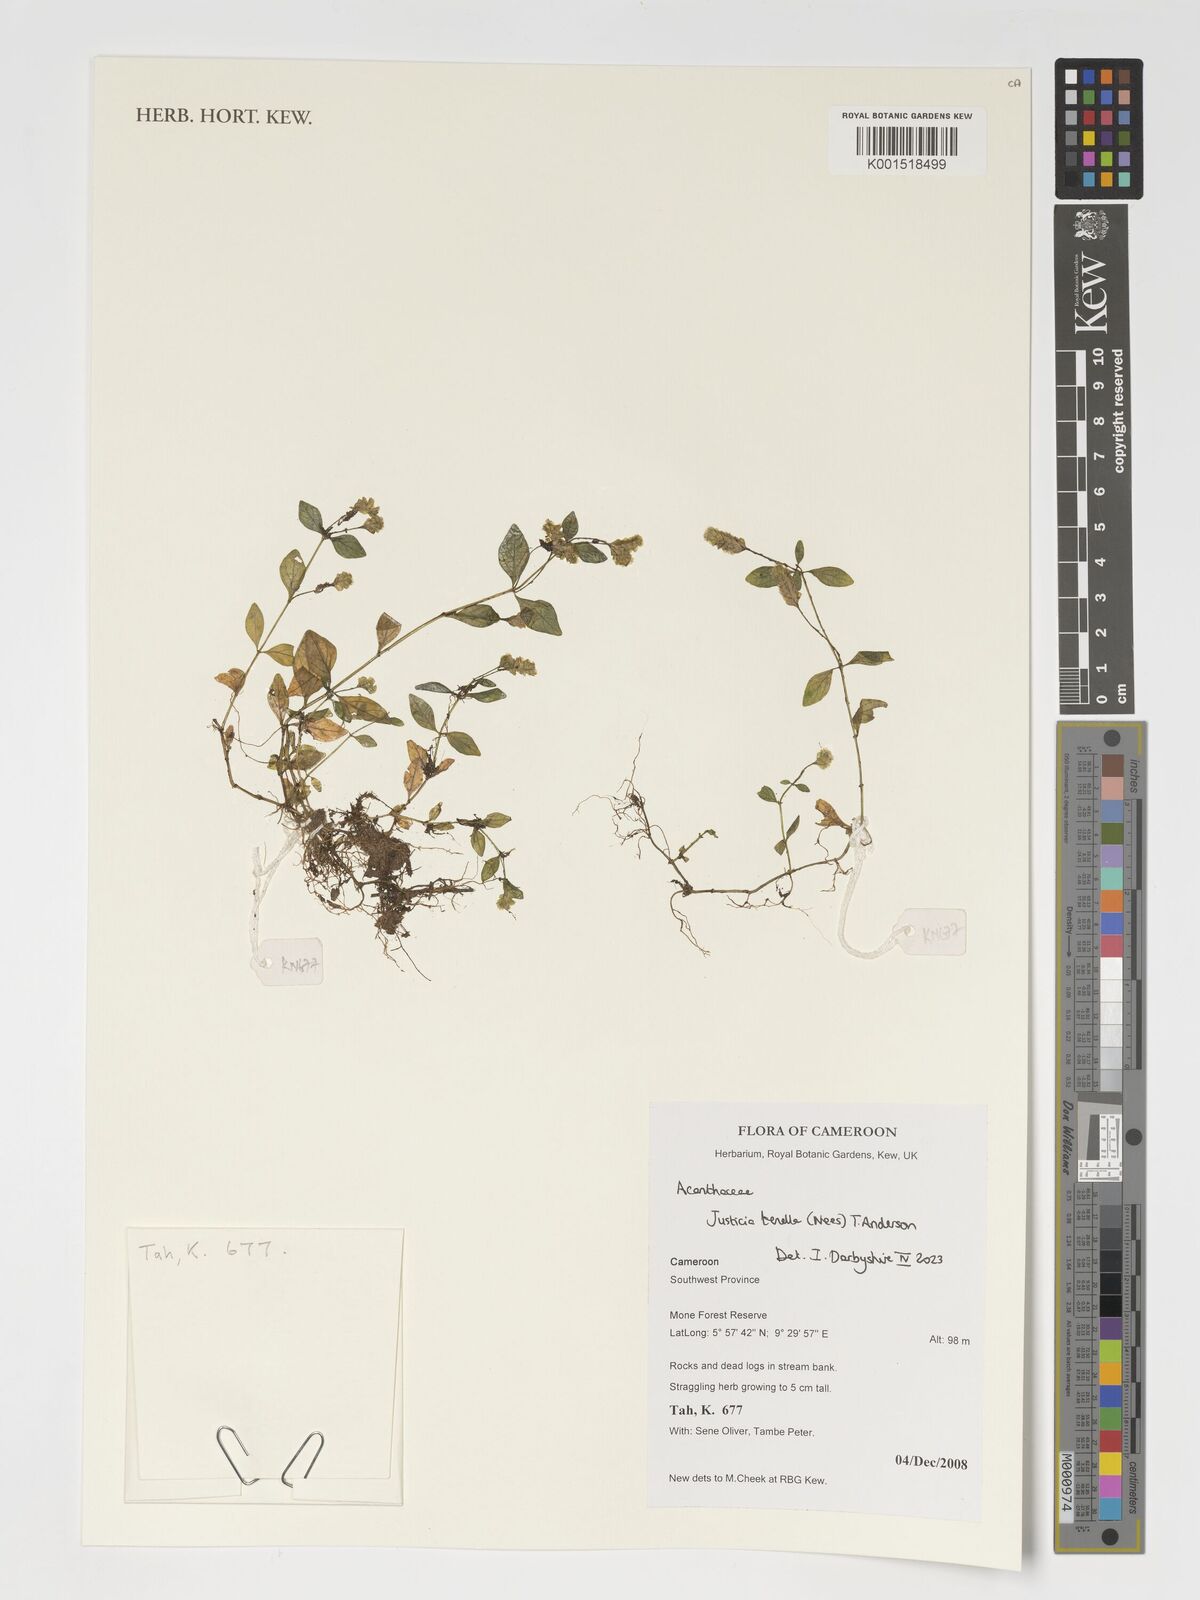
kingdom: Plantae
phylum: Tracheophyta
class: Magnoliopsida
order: Lamiales
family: Acanthaceae
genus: Anisostachya
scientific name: Anisostachya tenella
